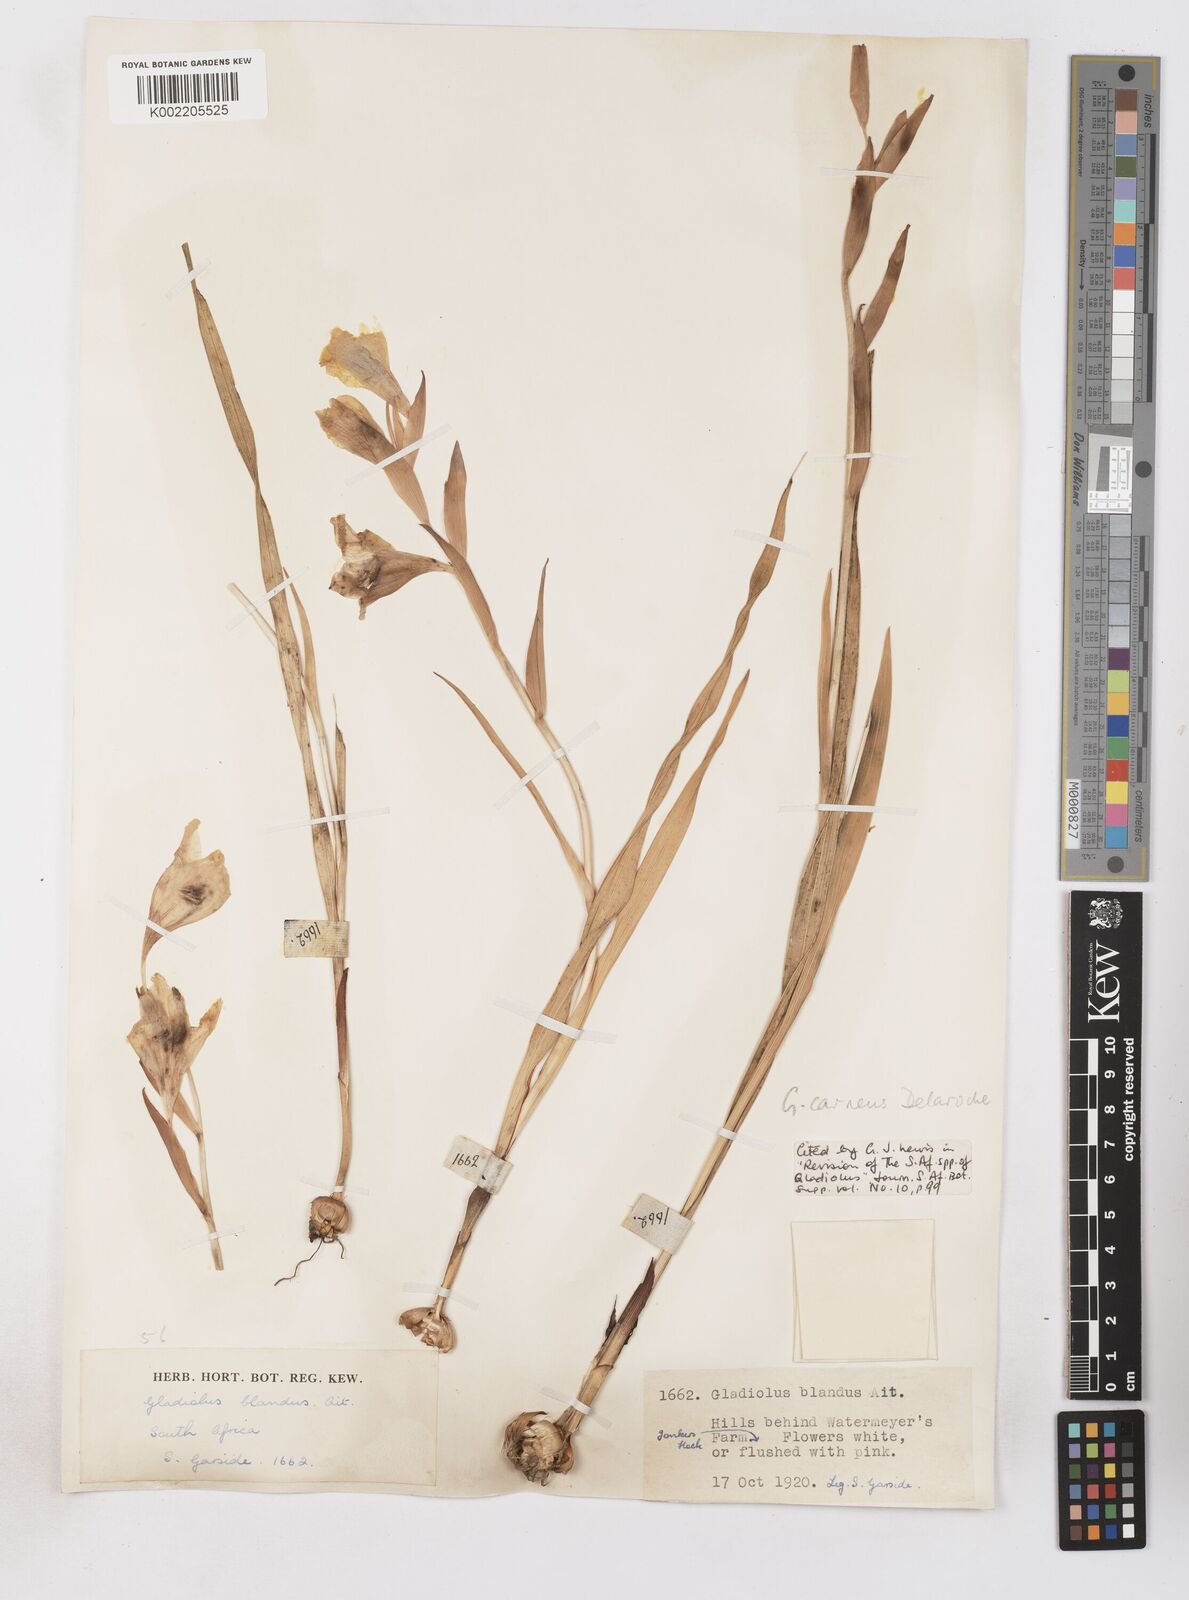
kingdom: Plantae
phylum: Tracheophyta
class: Liliopsida
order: Asparagales
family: Iridaceae
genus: Gladiolus
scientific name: Gladiolus carneus
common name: Painted-lady
